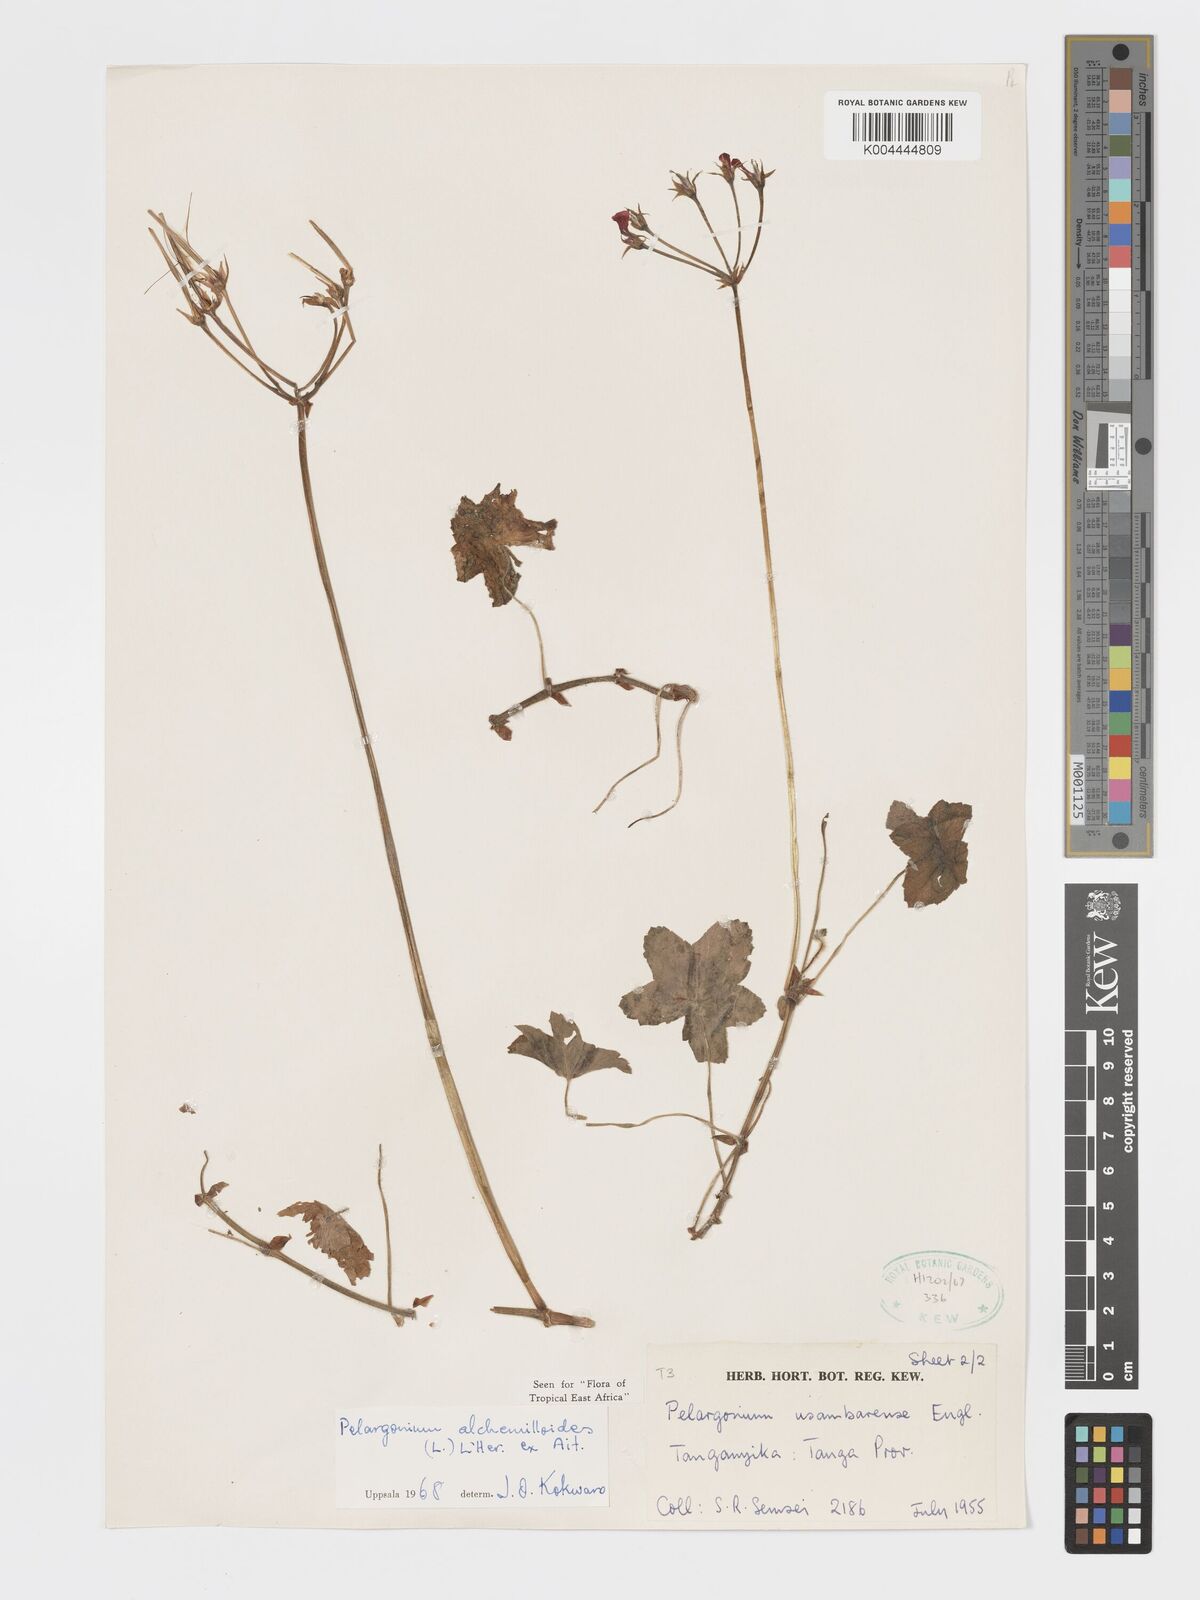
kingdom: Plantae
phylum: Tracheophyta
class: Magnoliopsida
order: Geraniales
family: Geraniaceae
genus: Pelargonium
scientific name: Pelargonium alchemilloides
